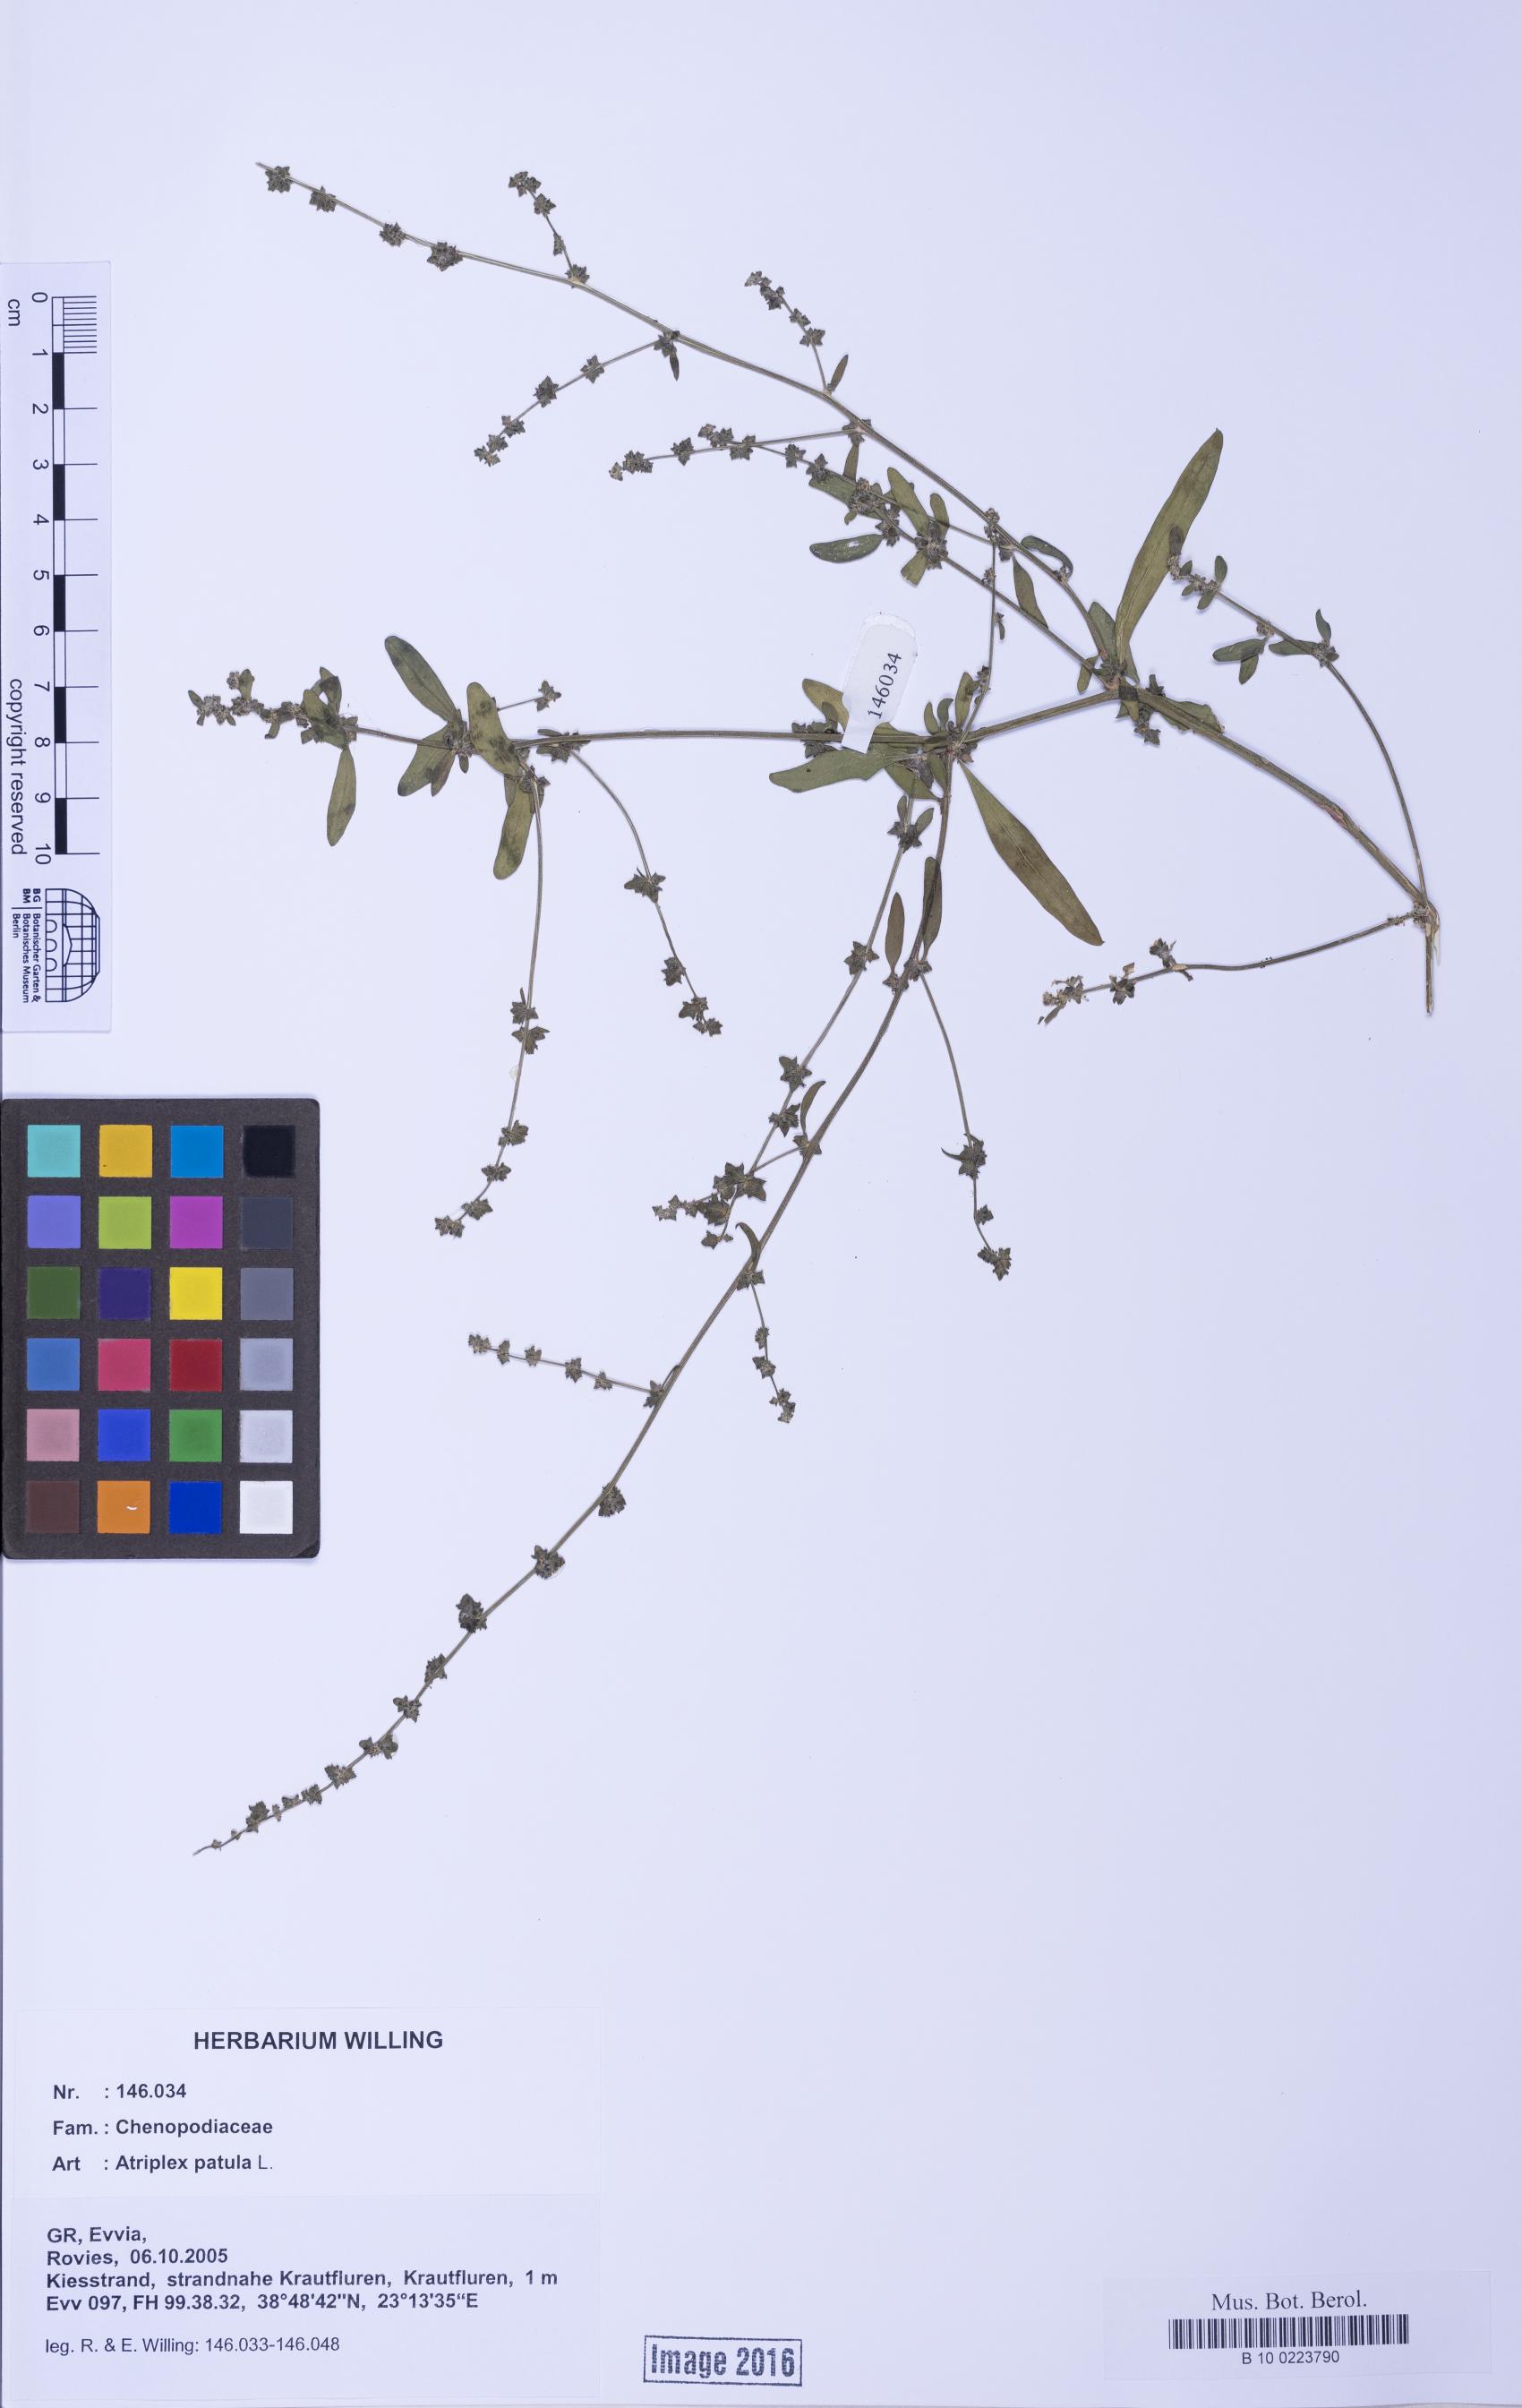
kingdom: Plantae
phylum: Tracheophyta
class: Magnoliopsida
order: Caryophyllales
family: Amaranthaceae
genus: Atriplex
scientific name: Atriplex patula
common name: Common orache
